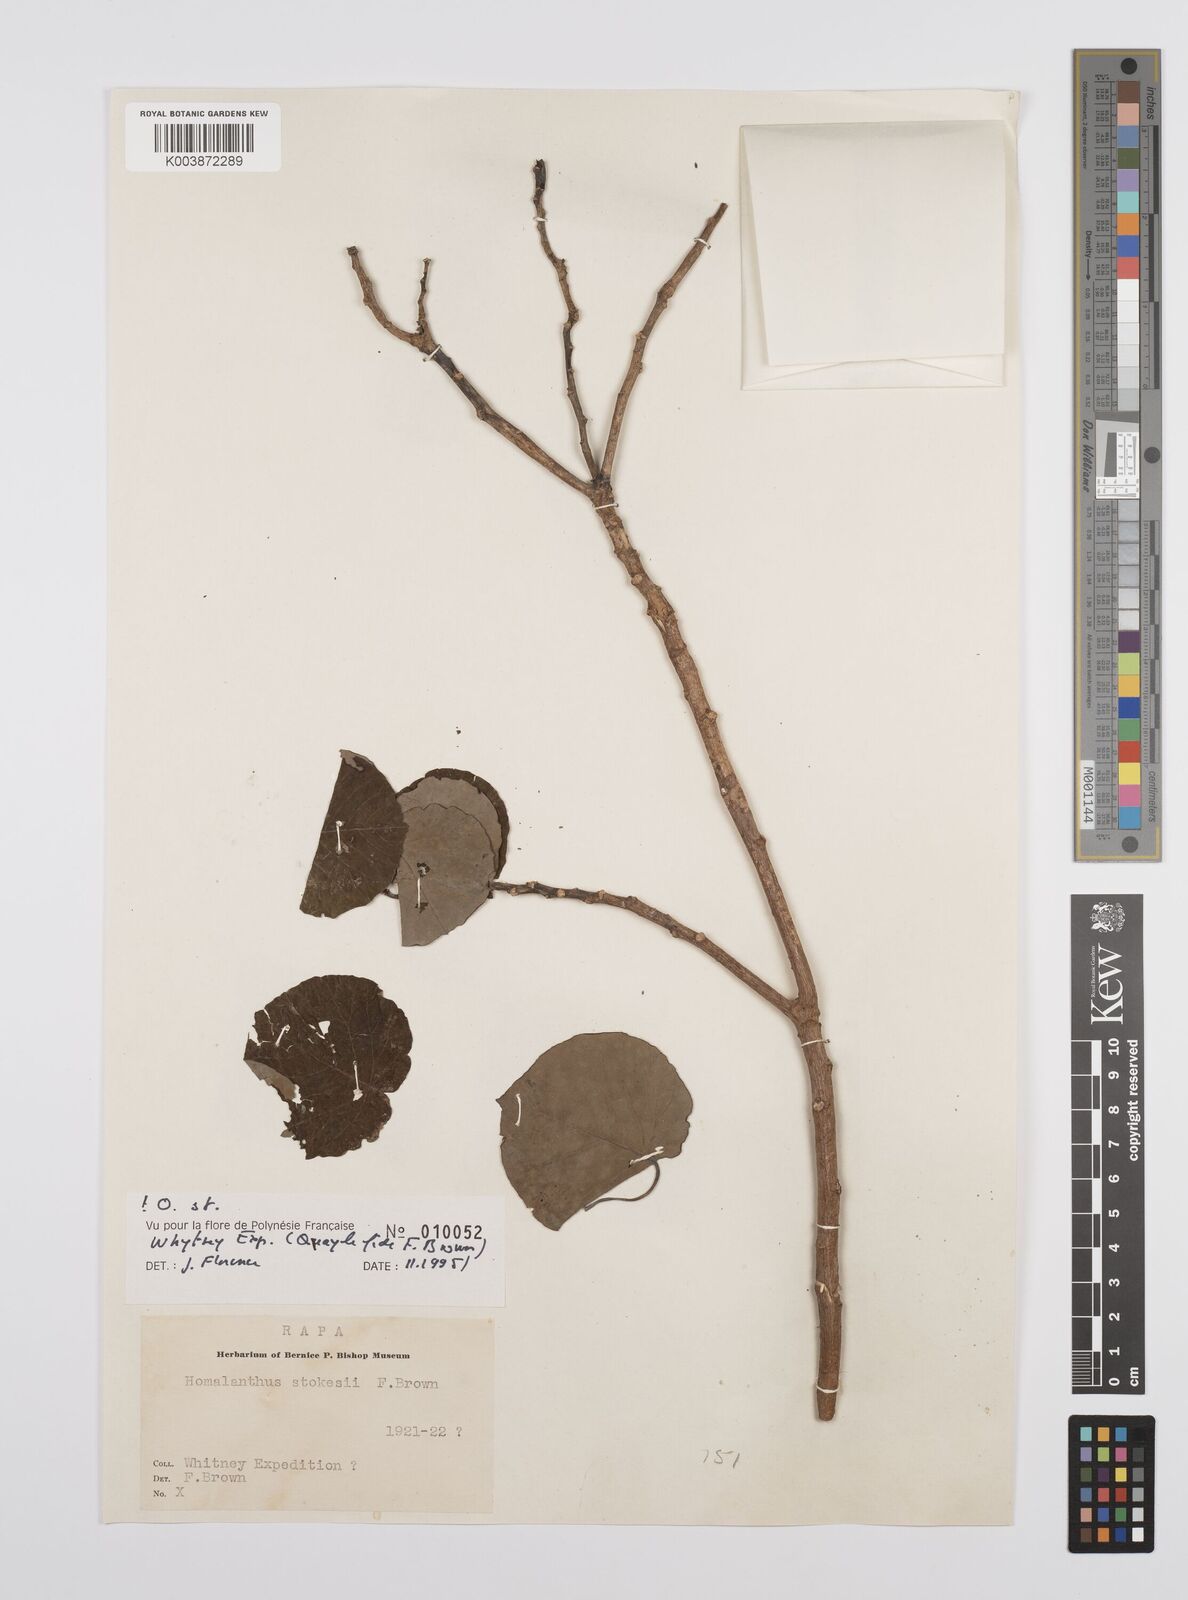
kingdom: Plantae
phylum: Tracheophyta
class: Magnoliopsida
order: Malpighiales
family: Euphorbiaceae
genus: Homalanthus
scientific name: Homalanthus stokesii
